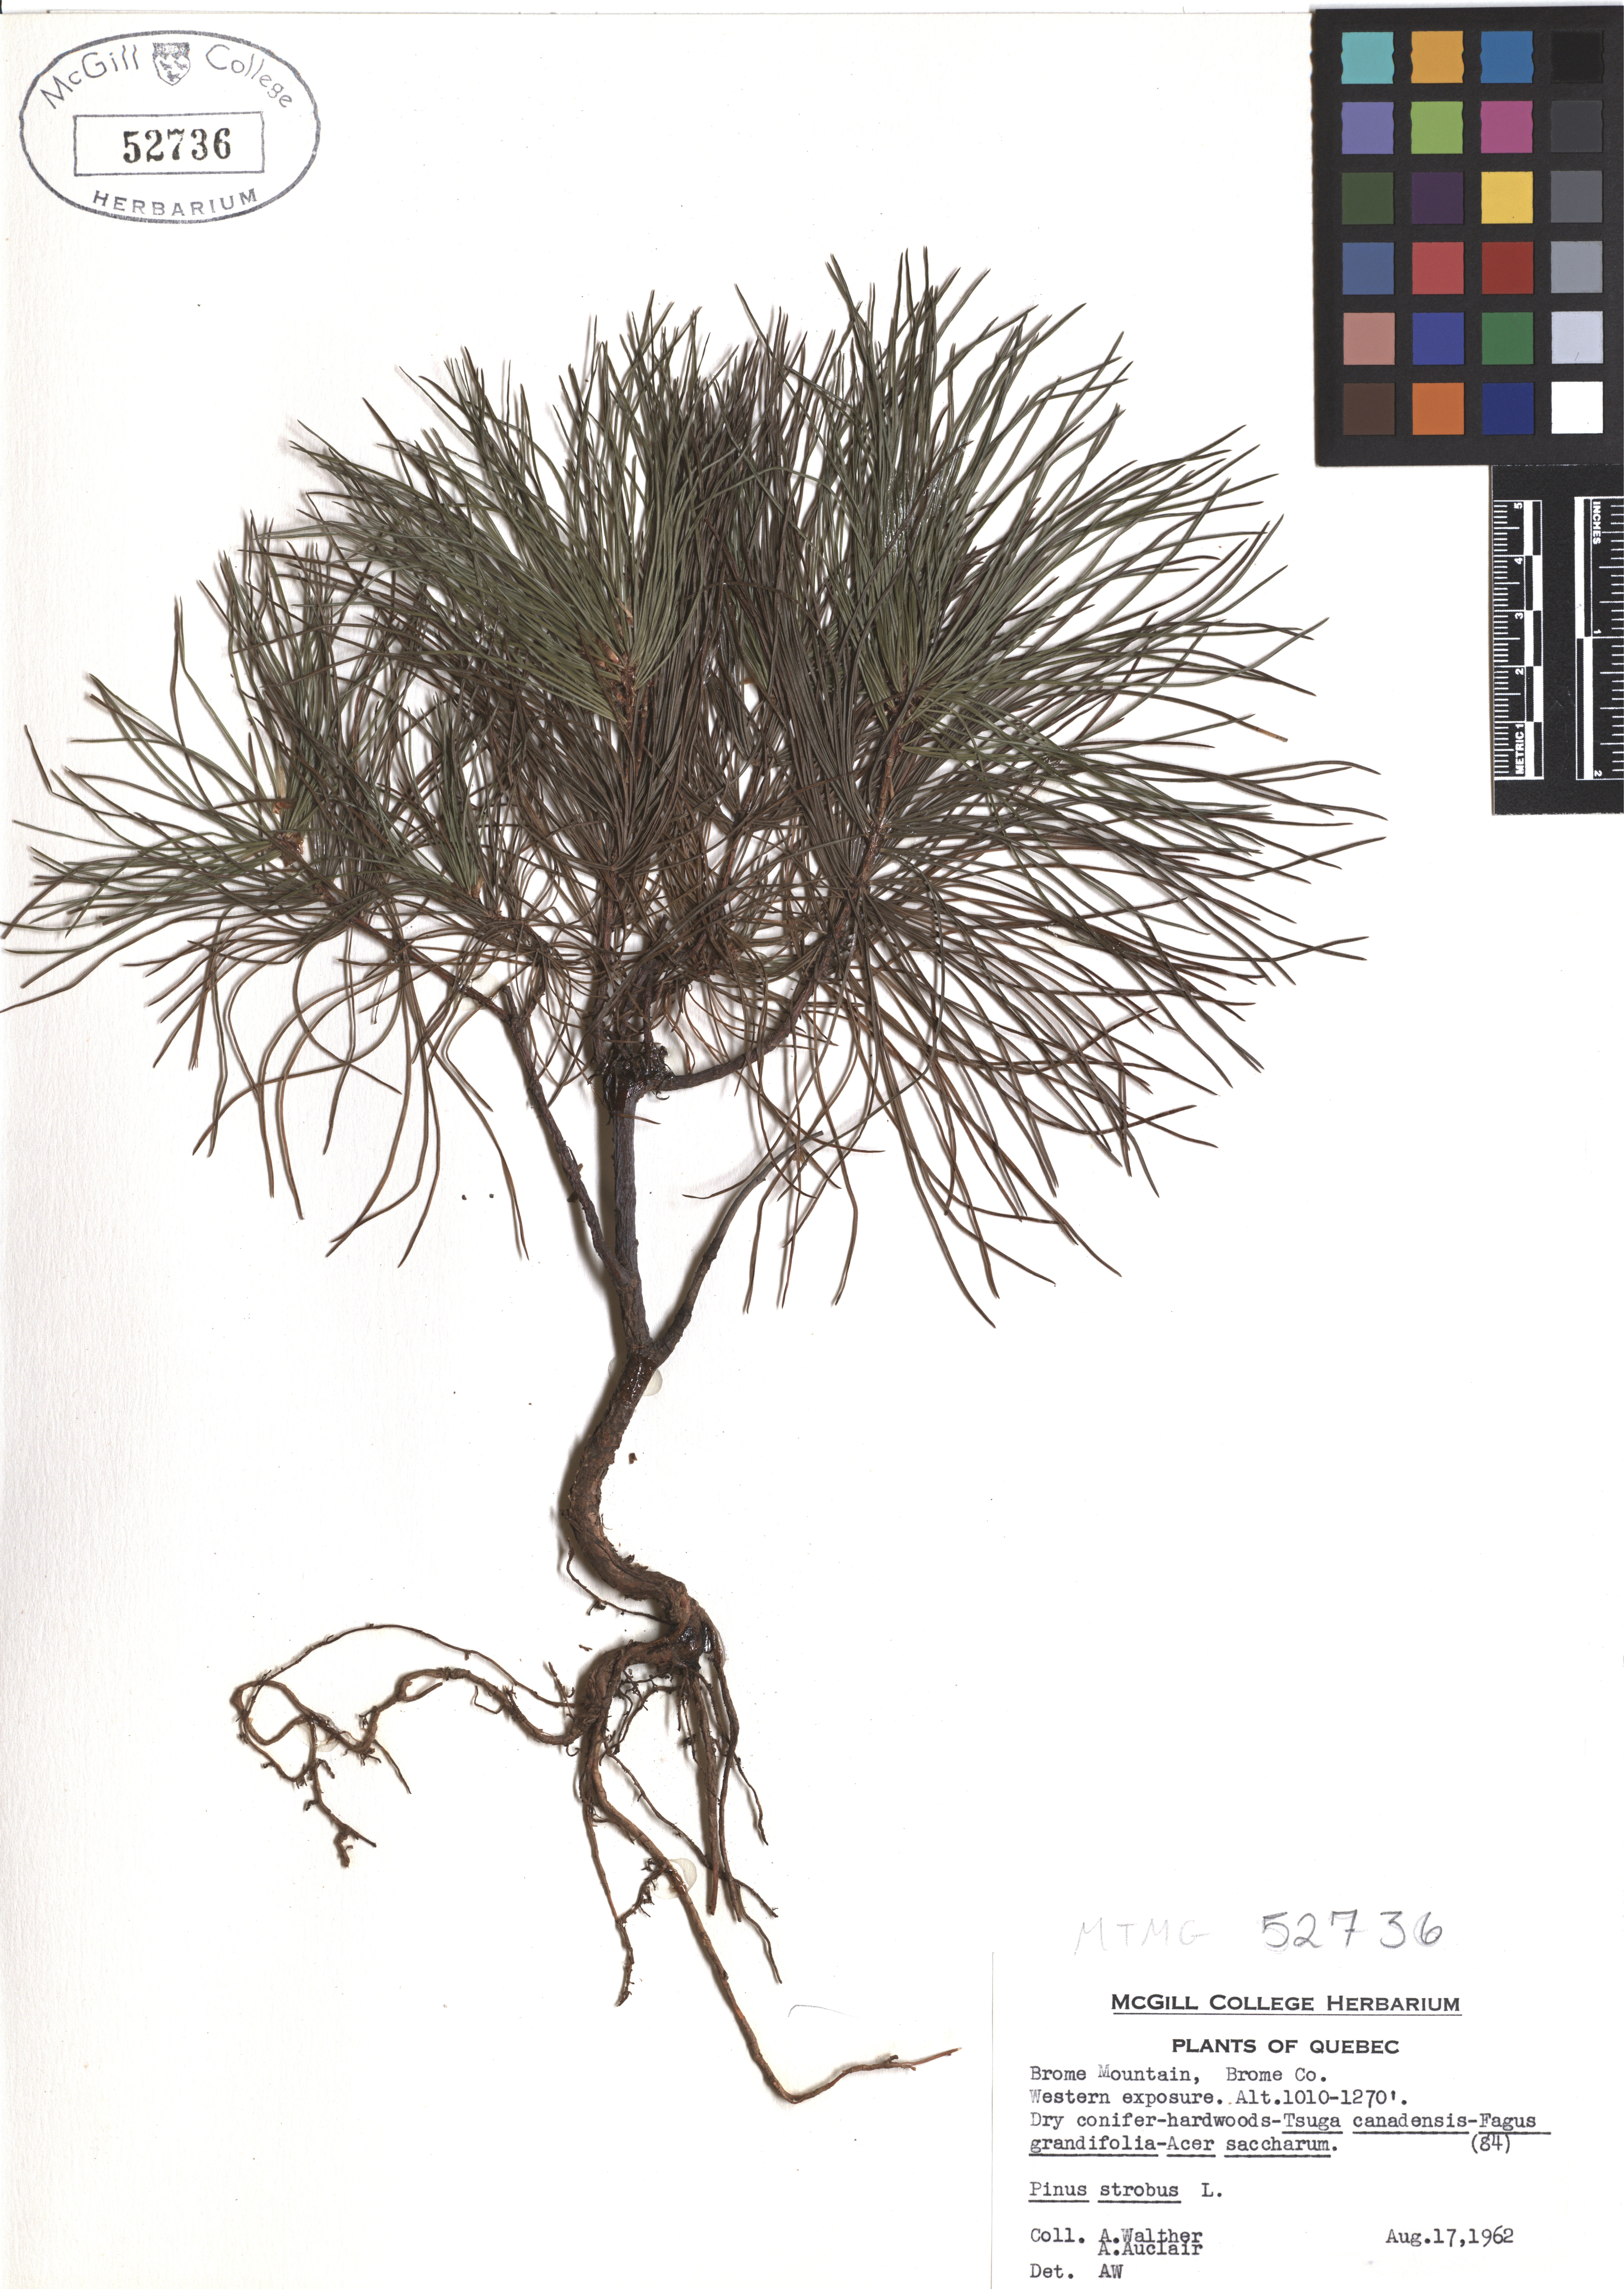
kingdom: Plantae
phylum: Tracheophyta
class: Pinopsida
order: Pinales
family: Pinaceae
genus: Pinus
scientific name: Pinus strobus
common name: Weymouth pine
